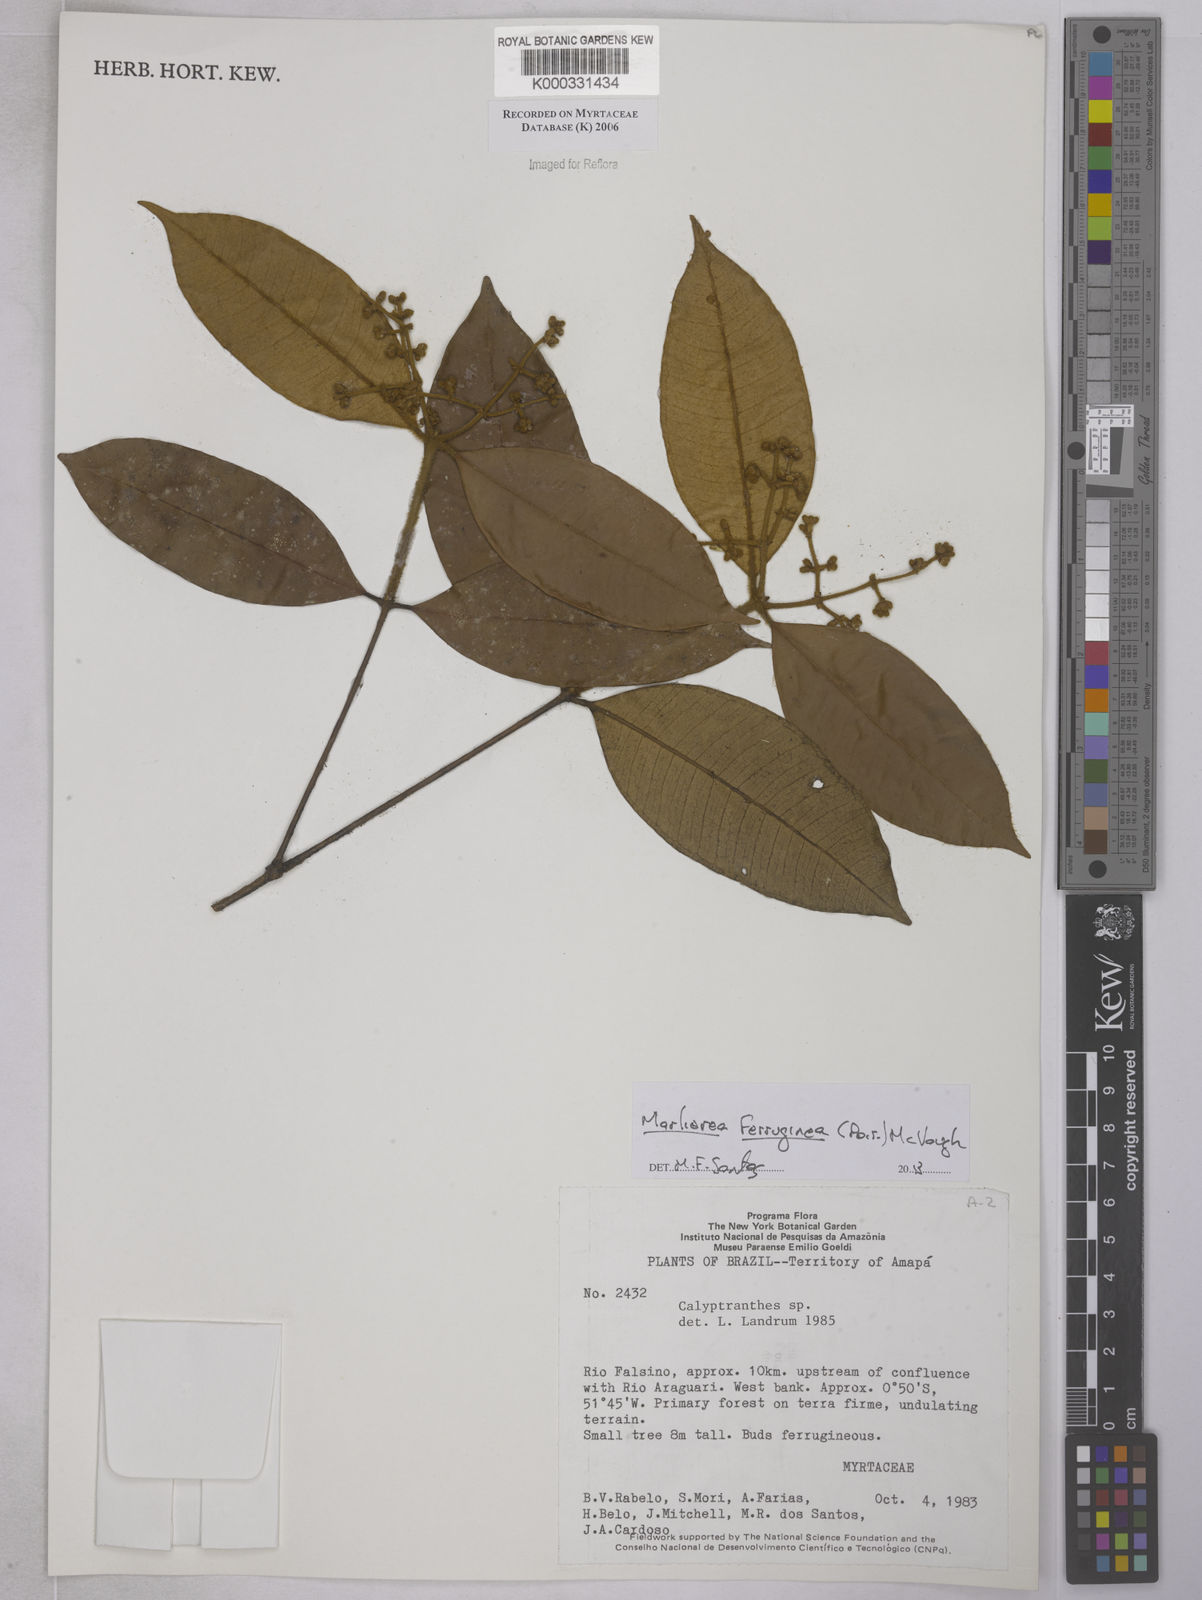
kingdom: Plantae
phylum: Tracheophyta
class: Magnoliopsida
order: Myrtales
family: Myrtaceae
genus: Calyptranthes
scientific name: Calyptranthes
